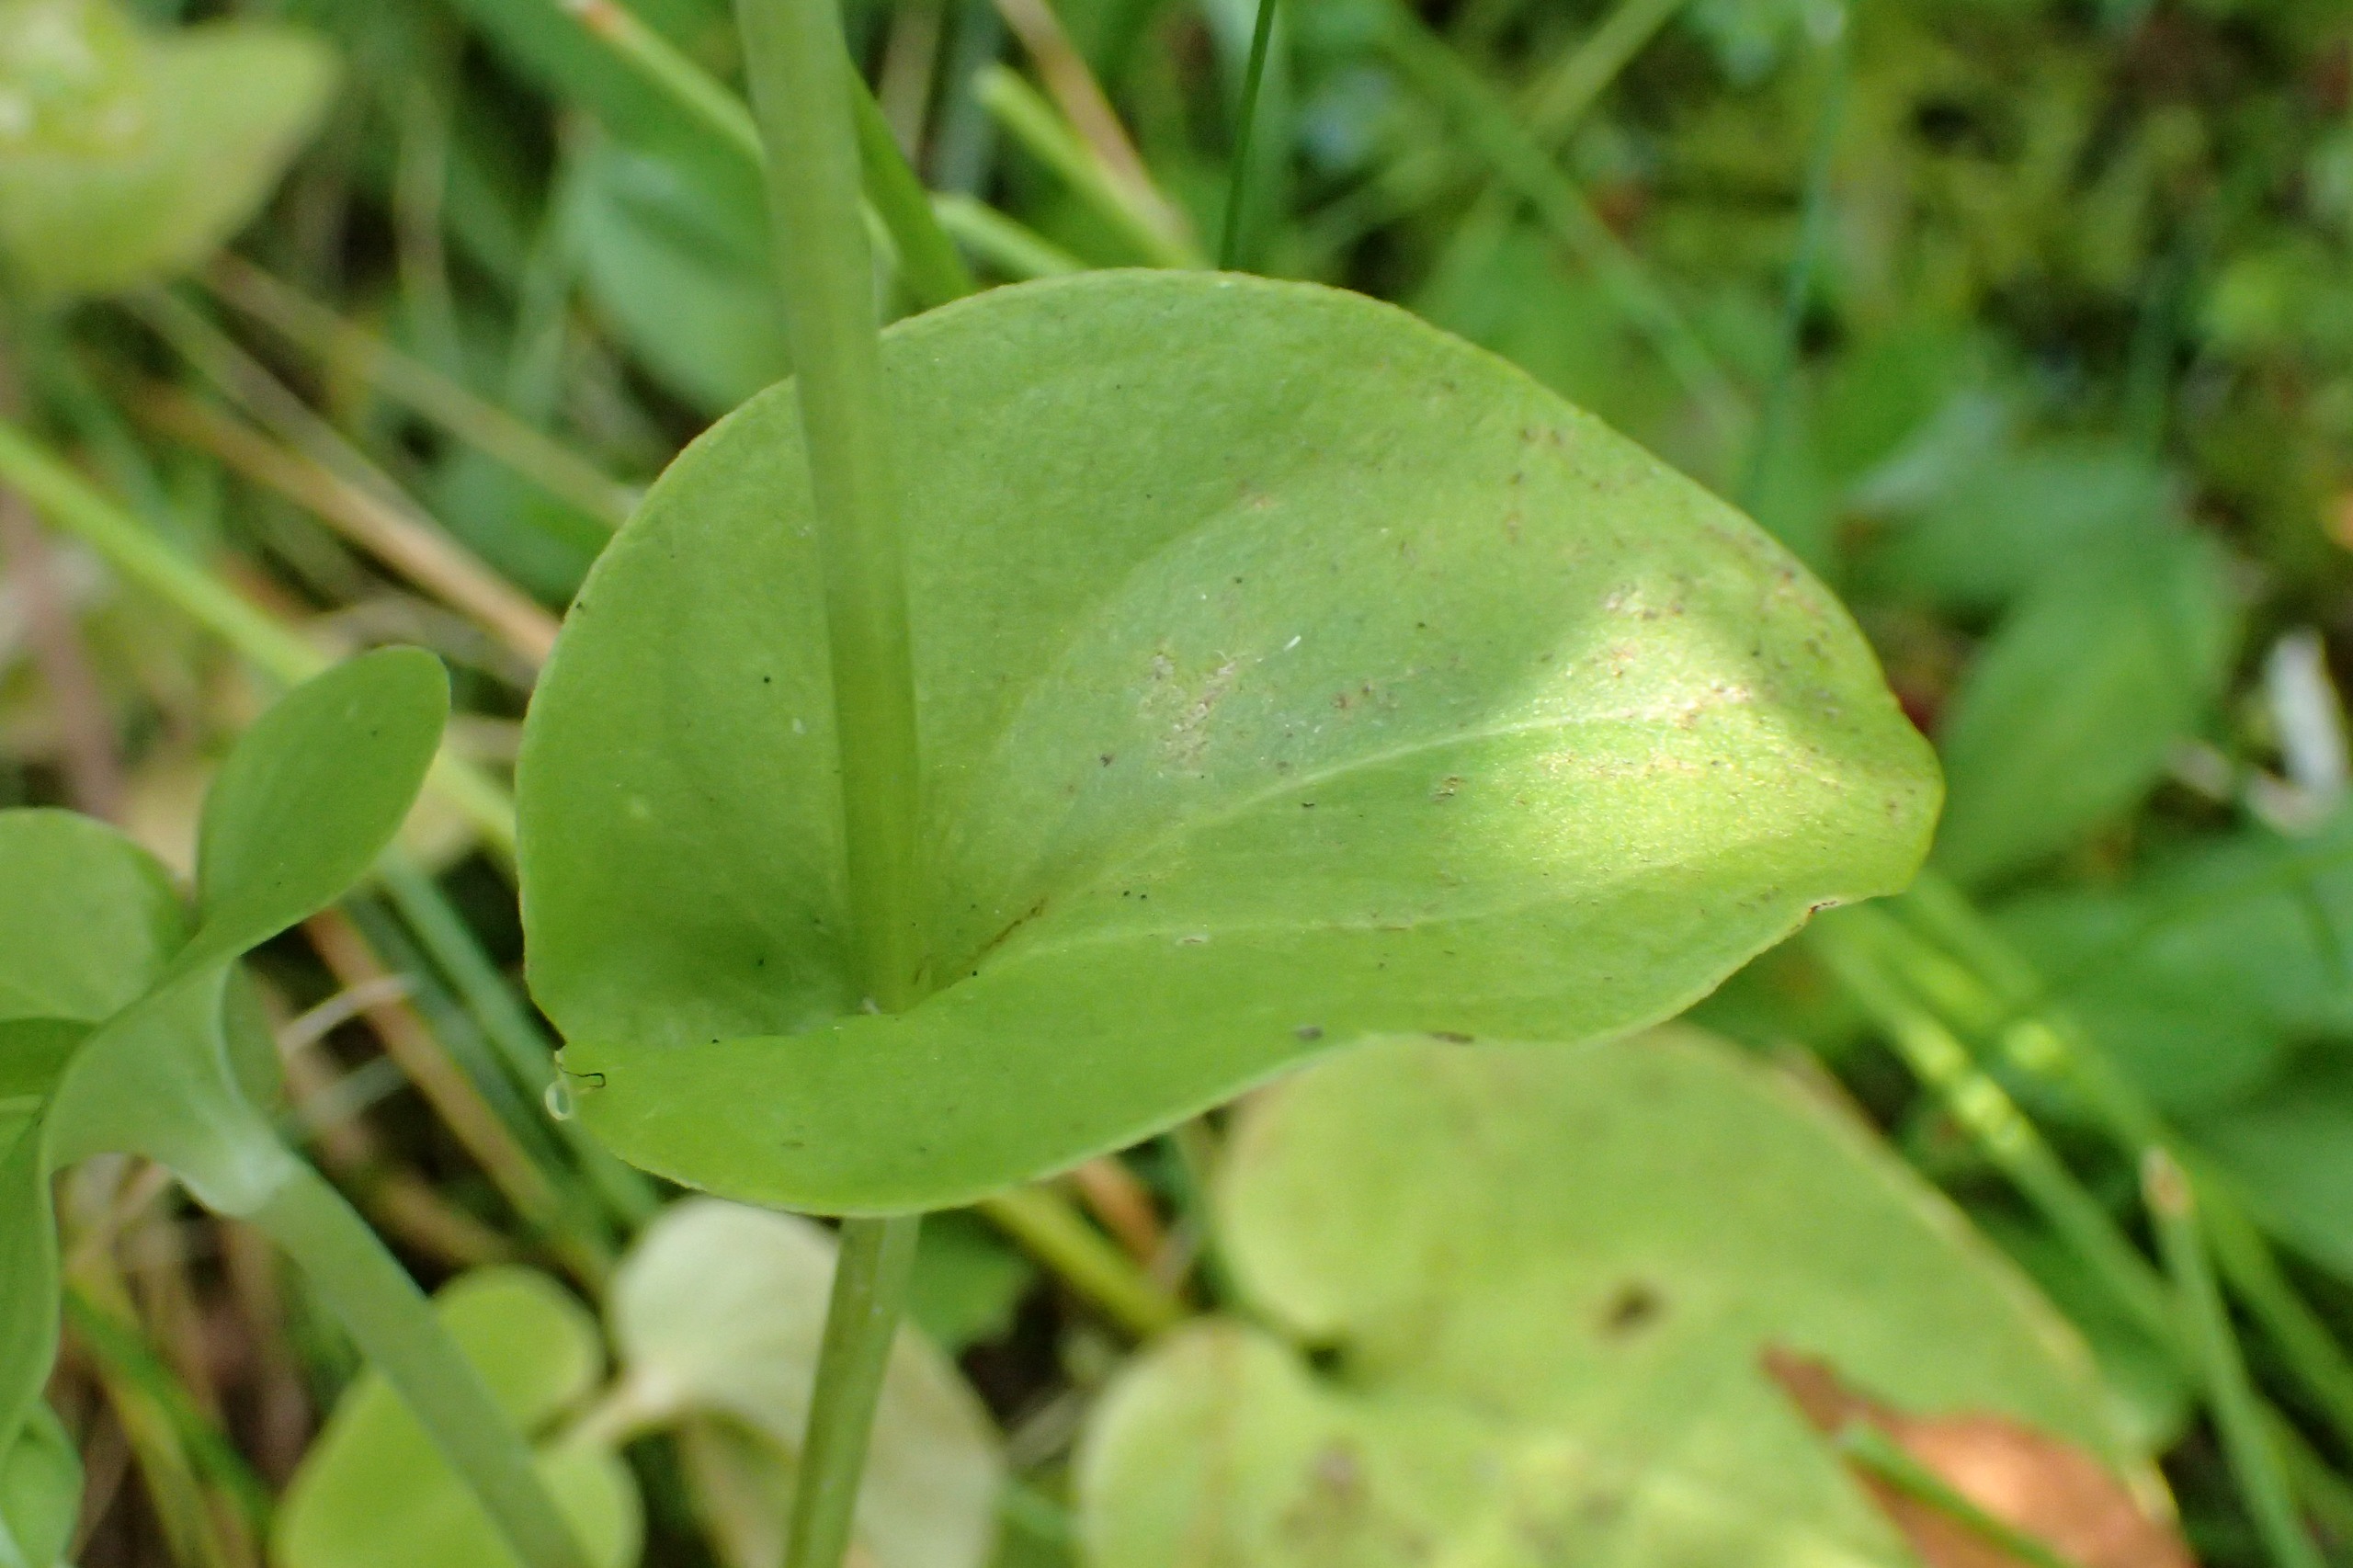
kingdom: Plantae
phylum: Tracheophyta
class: Magnoliopsida
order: Celastrales
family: Parnassiaceae
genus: Parnassia
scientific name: Parnassia palustris
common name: Leverurt
